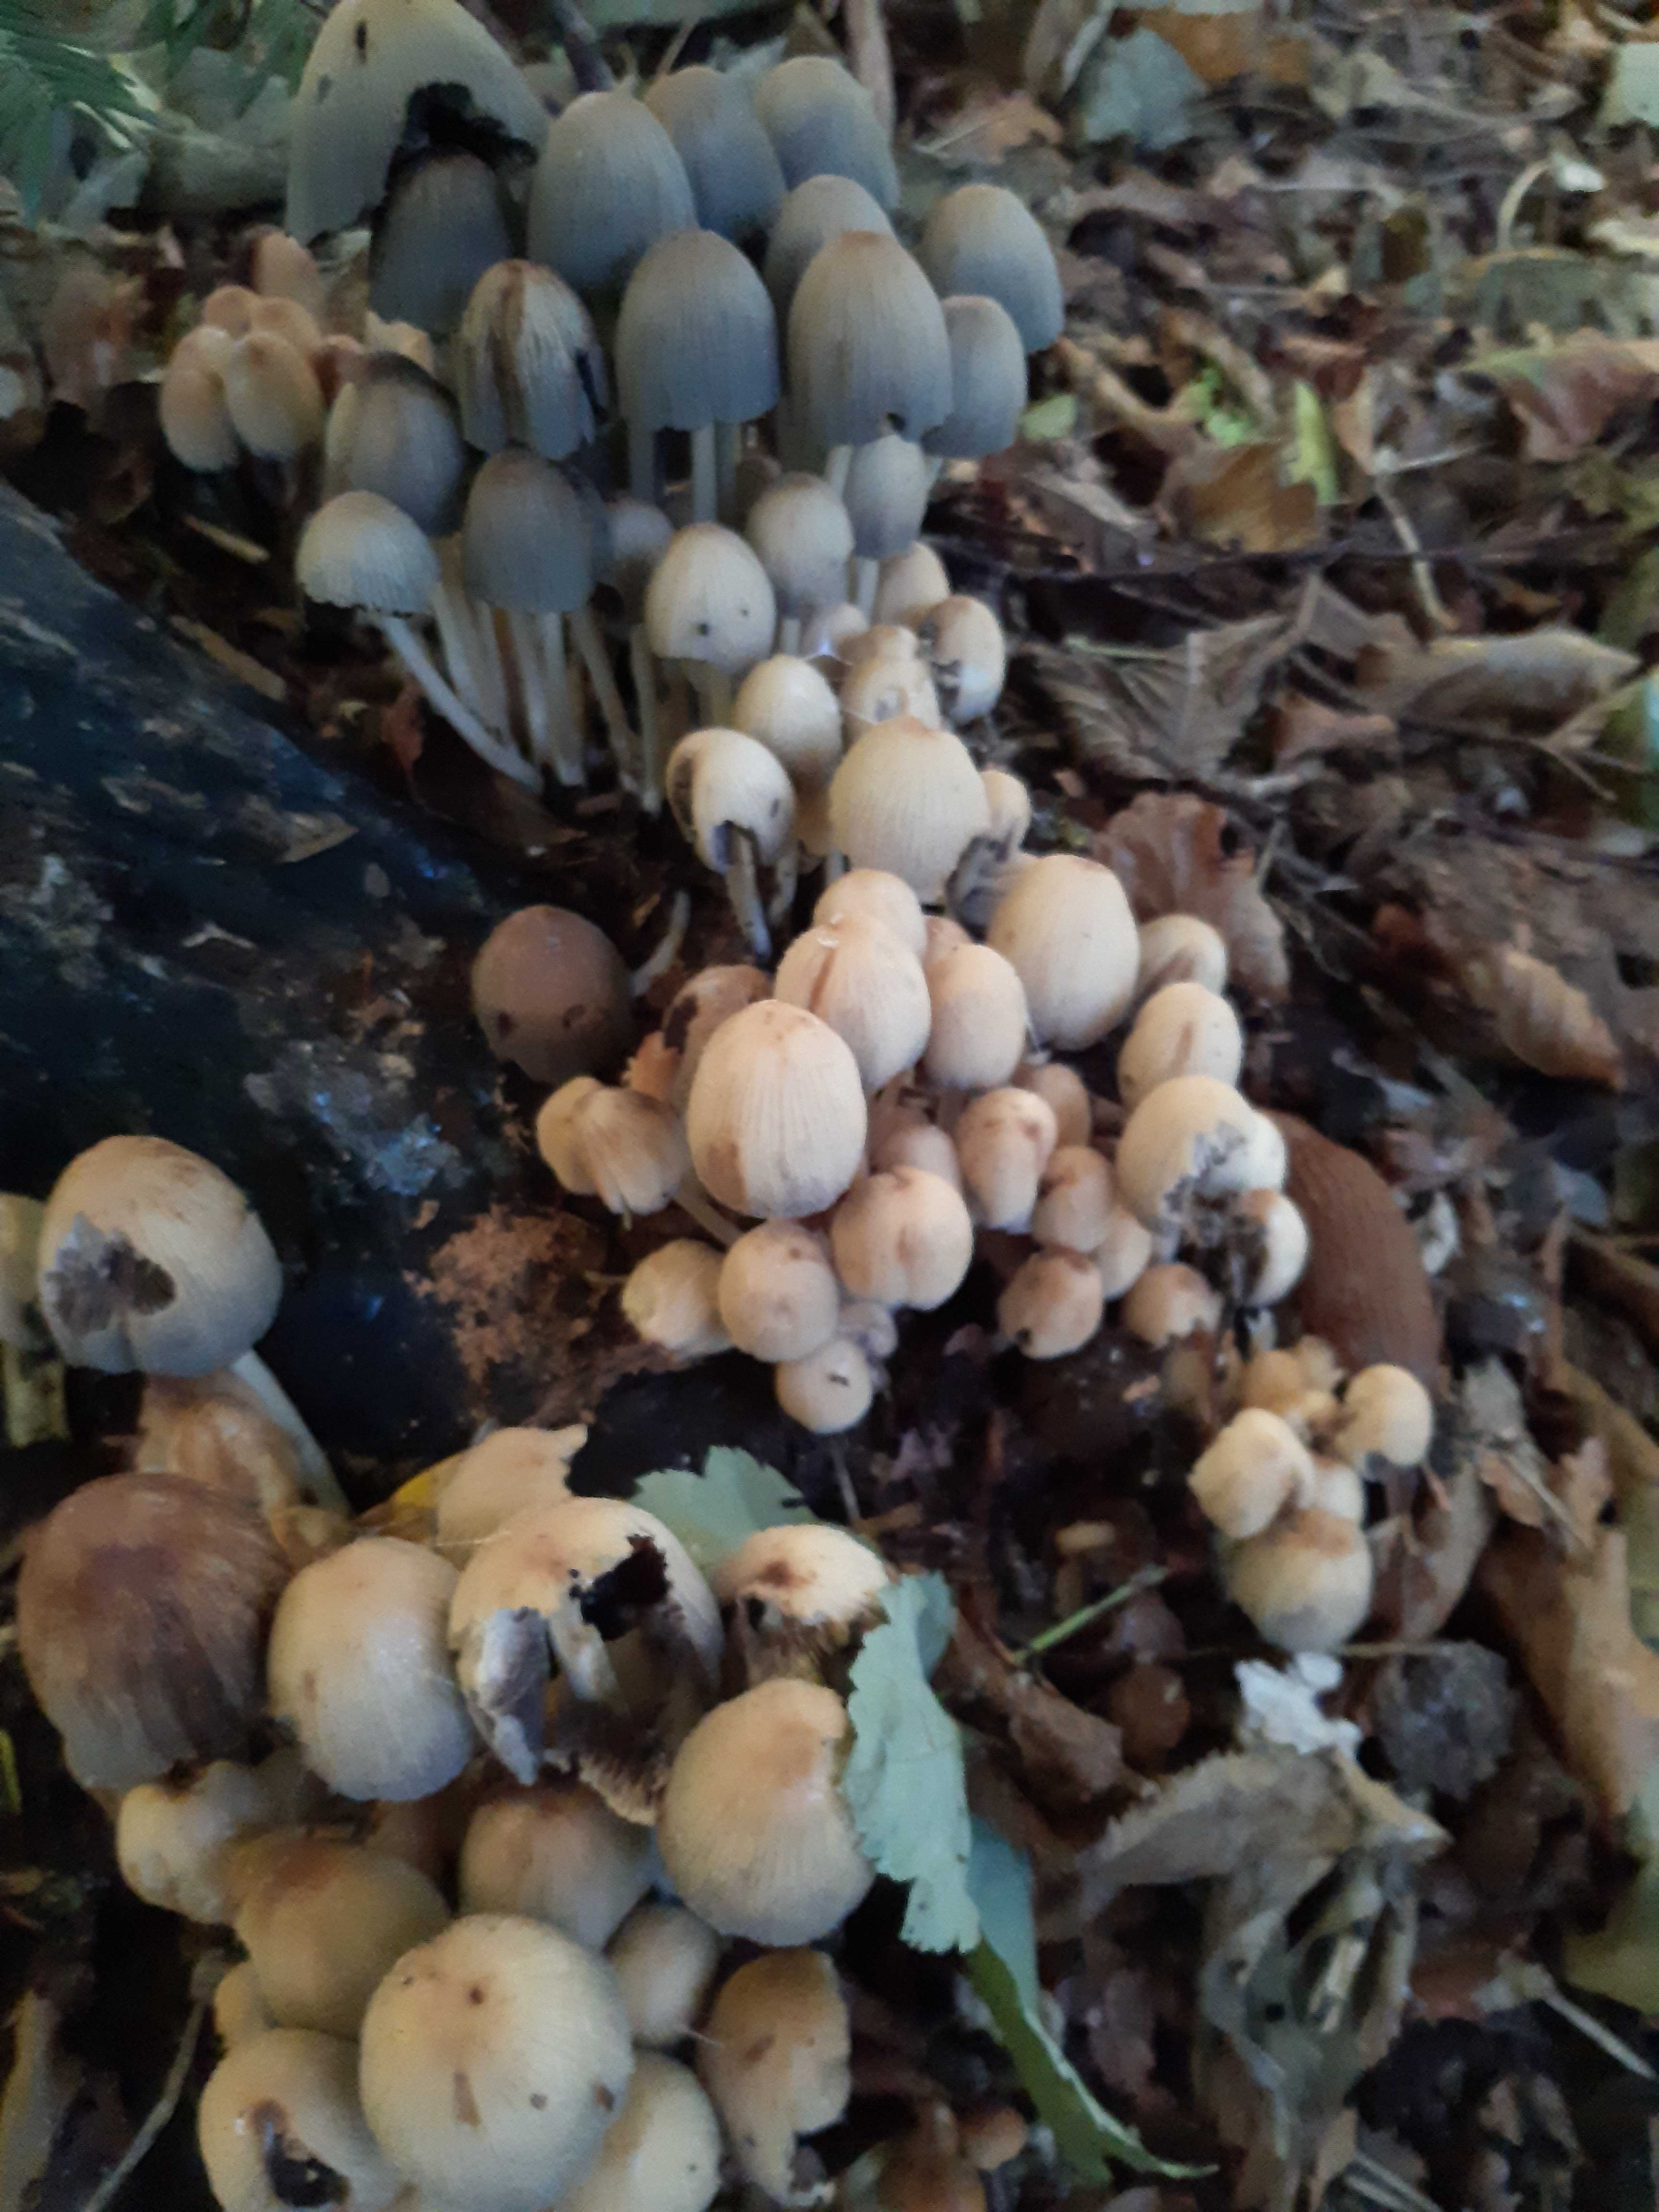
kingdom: Fungi
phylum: Basidiomycota
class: Agaricomycetes
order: Agaricales
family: Psathyrellaceae
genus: Coprinellus
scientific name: Coprinellus micaceus
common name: glimmer-blækhat
